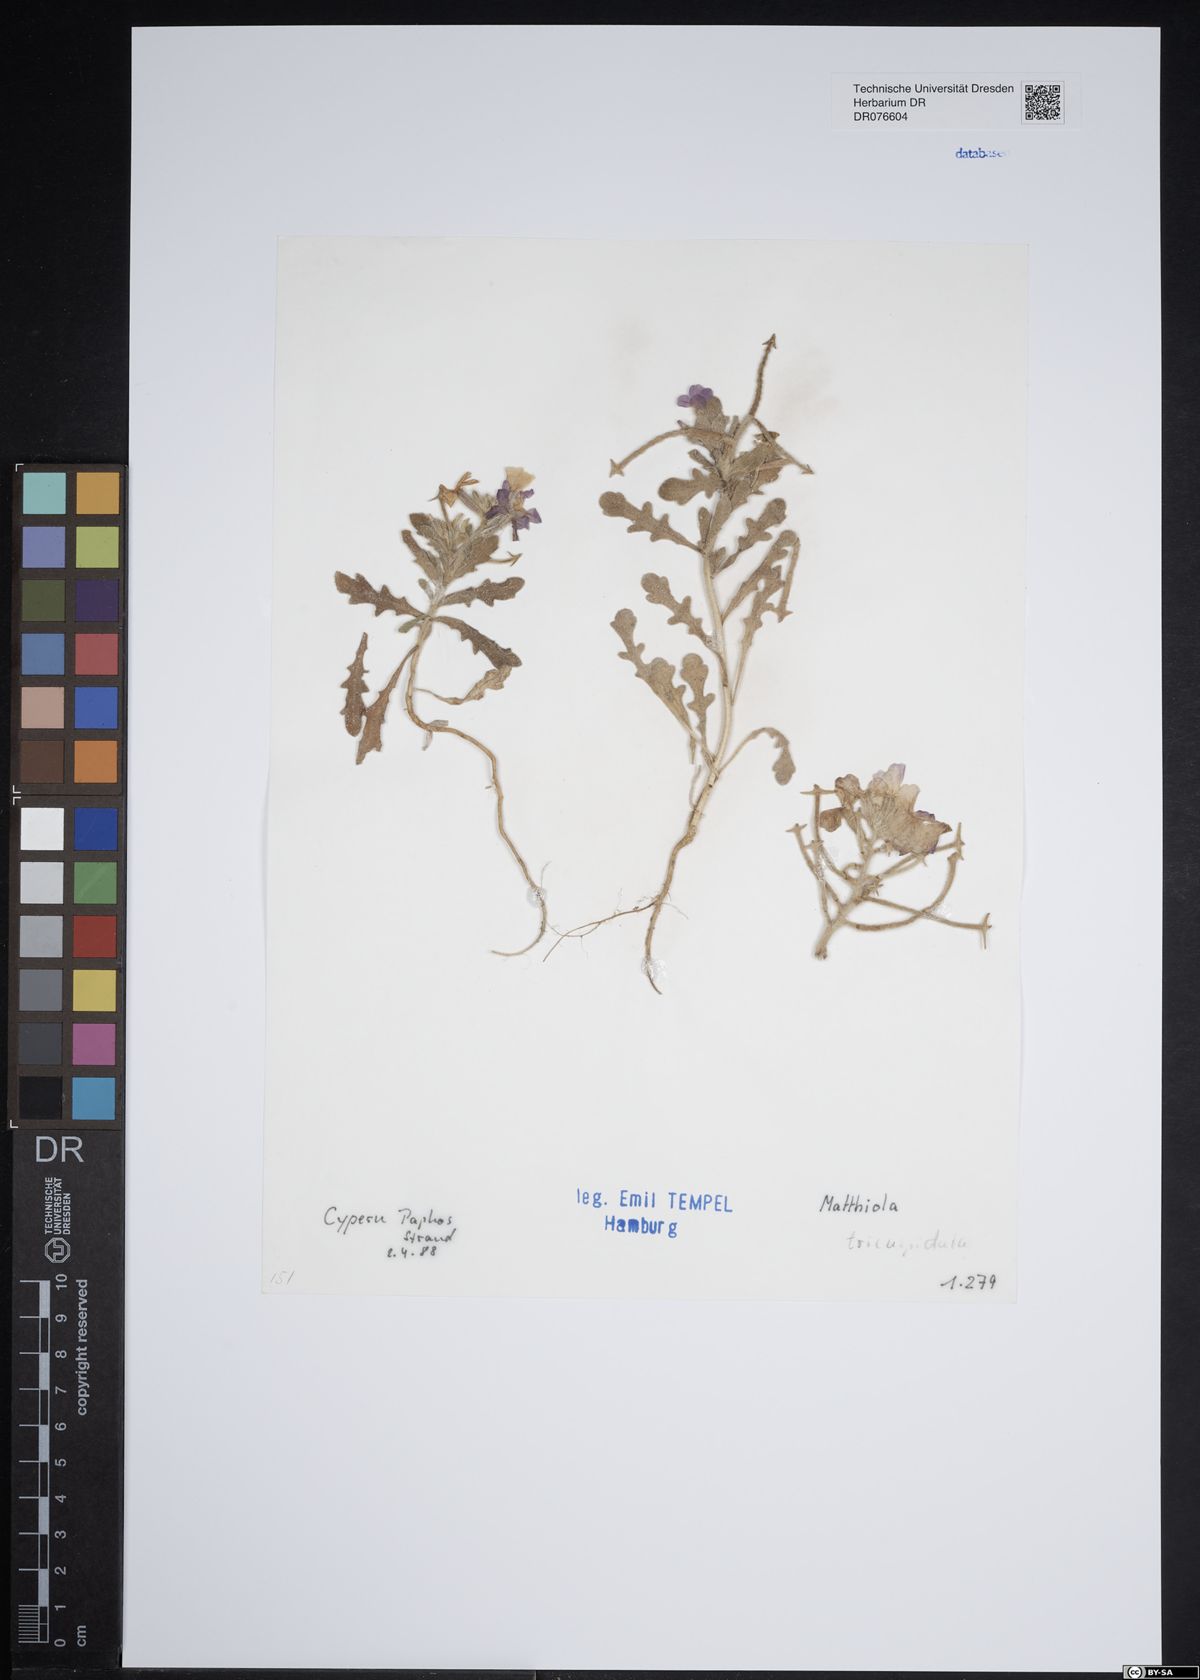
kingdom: Plantae
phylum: Tracheophyta
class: Magnoliopsida
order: Brassicales
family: Brassicaceae
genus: Matthiola
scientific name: Matthiola tricuspidata
